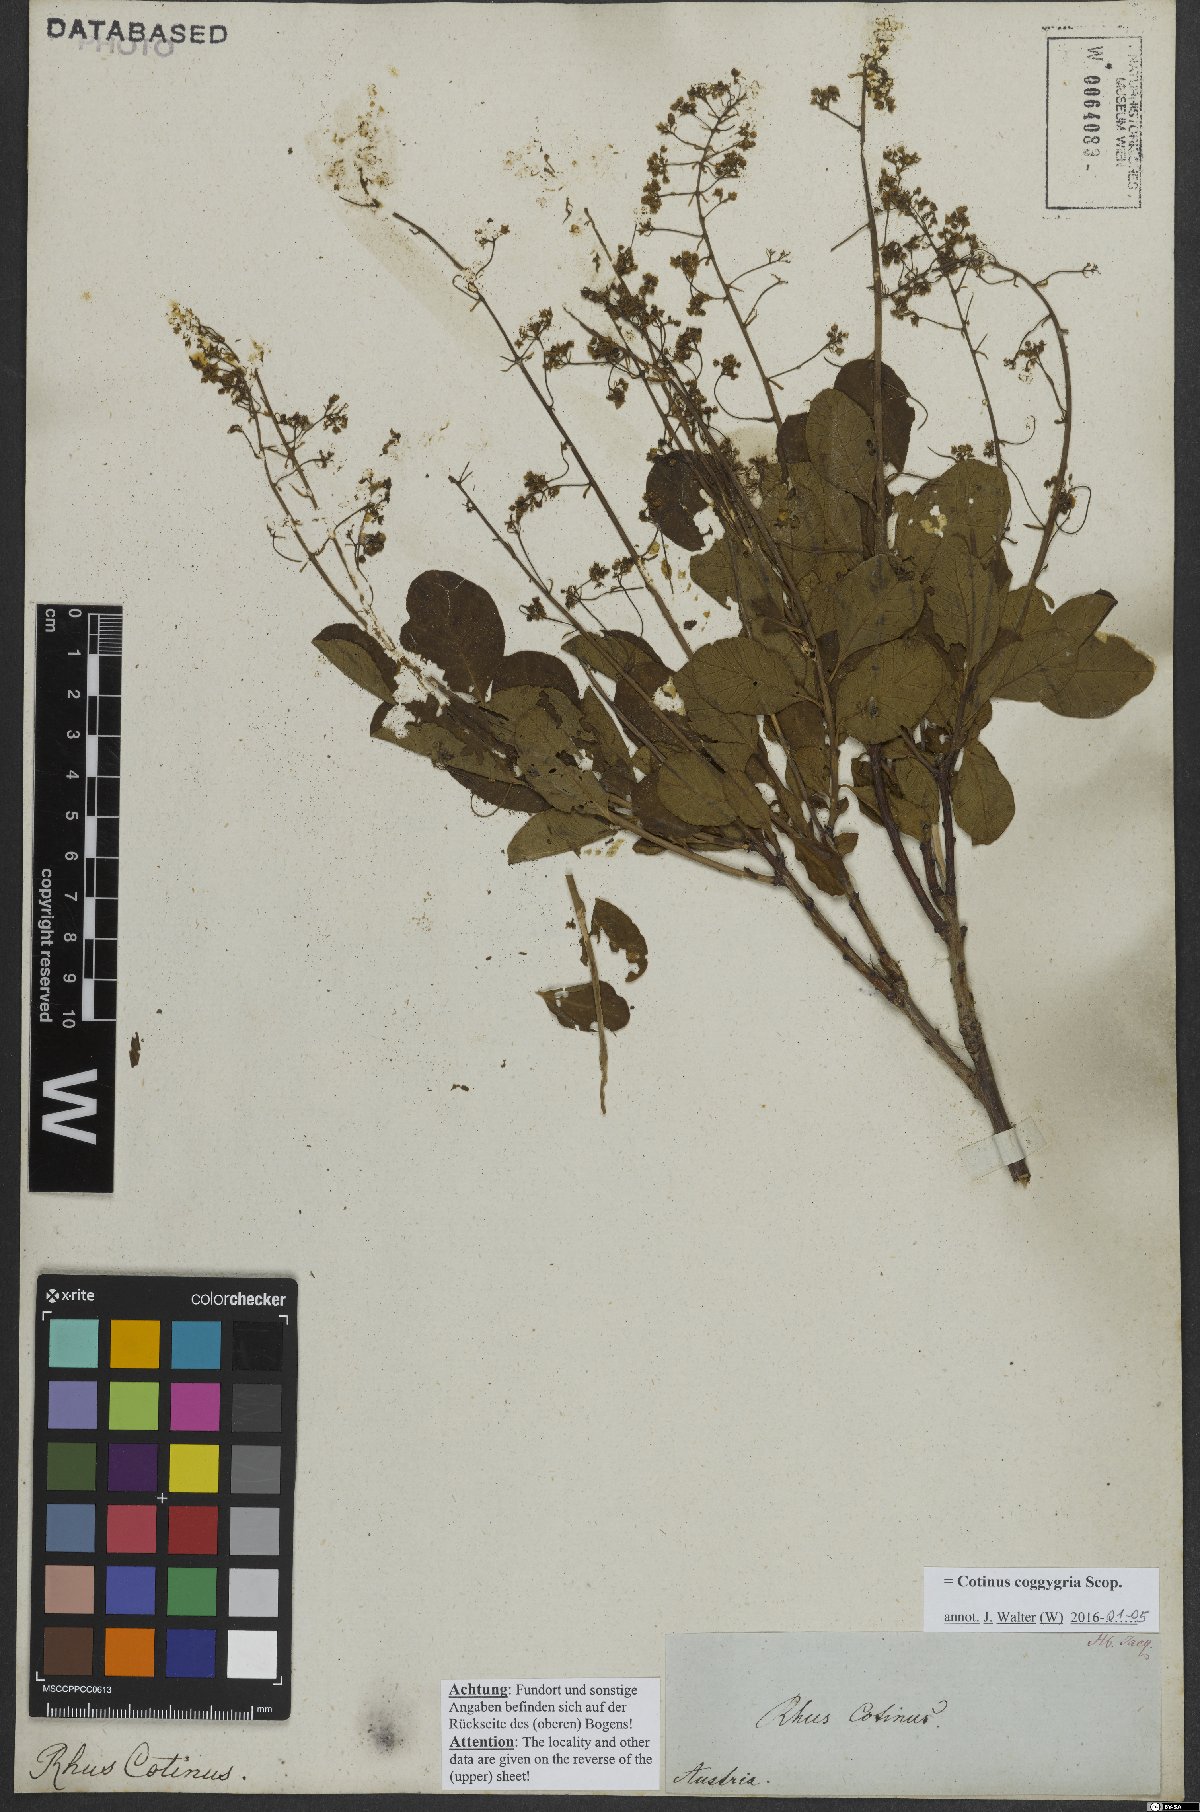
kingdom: Plantae
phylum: Tracheophyta
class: Magnoliopsida
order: Sapindales
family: Anacardiaceae
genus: Cotinus
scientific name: Cotinus coggygria
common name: Smoke-tree
